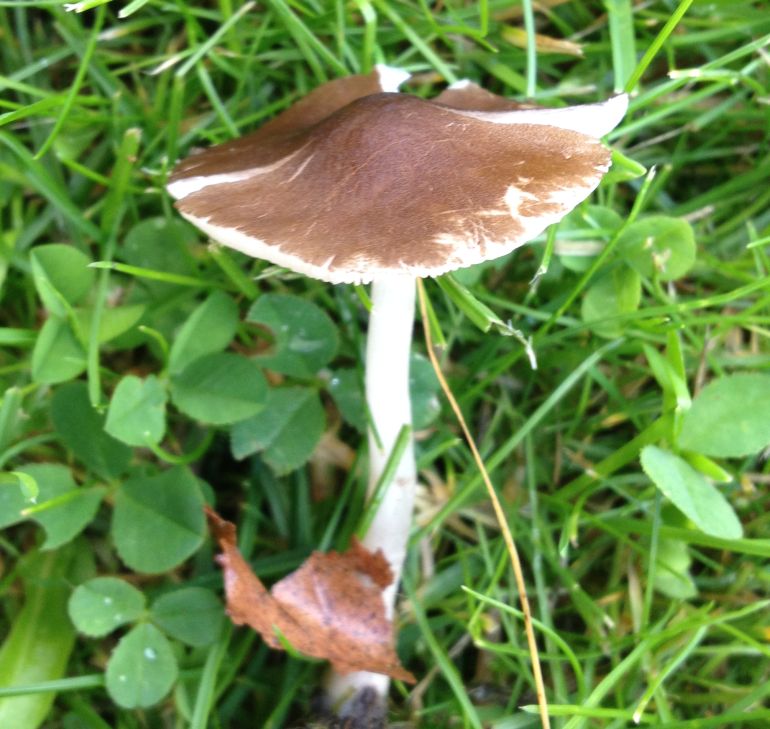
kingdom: Fungi
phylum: Basidiomycota
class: Agaricomycetes
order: Agaricales
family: Pluteaceae
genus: Pluteus
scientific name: Pluteus podospileus
